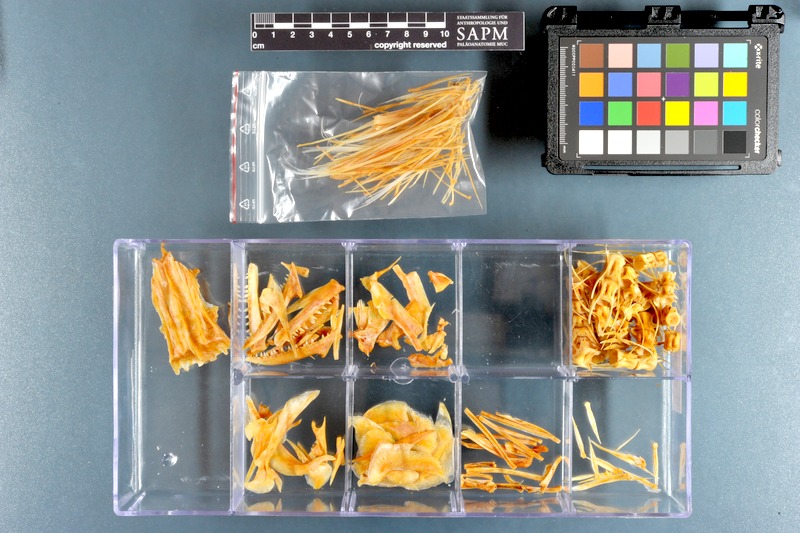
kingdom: Animalia
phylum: Chordata
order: Perciformes
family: Scombridae
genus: Scomberomorus
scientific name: Scomberomorus commerson
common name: Narrow-barred spanish mackerel
